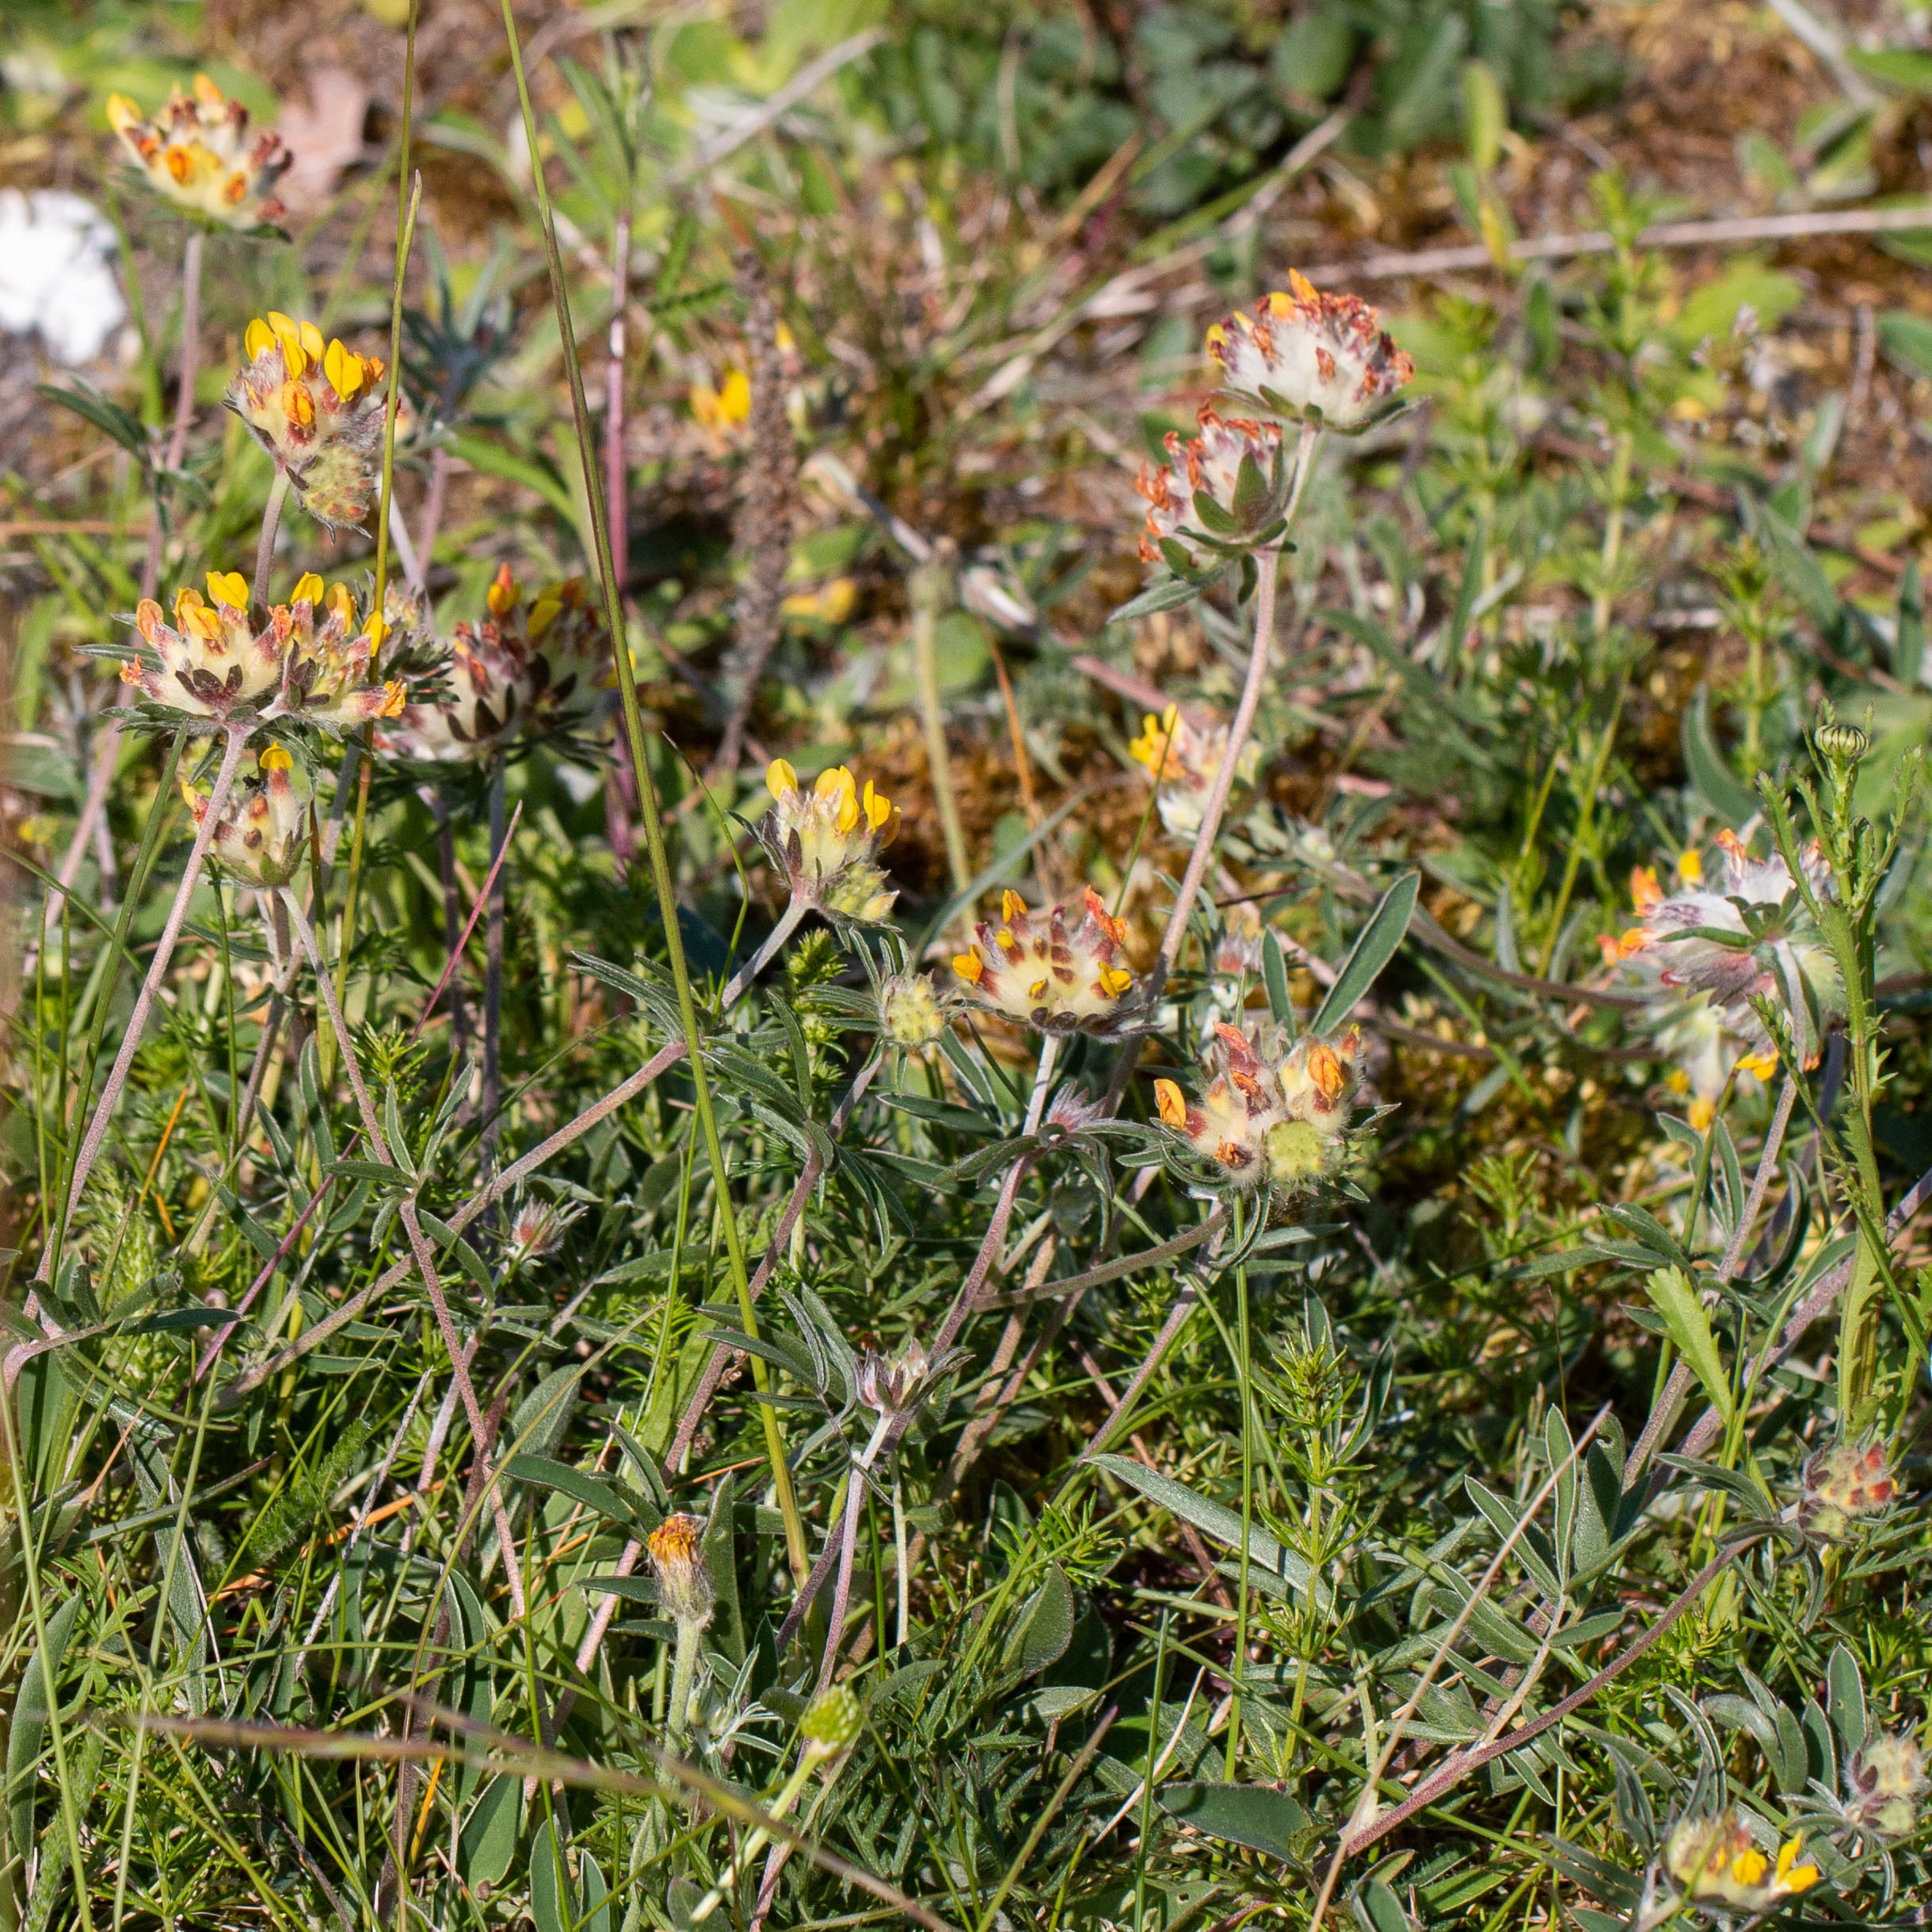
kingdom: Plantae
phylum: Tracheophyta
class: Magnoliopsida
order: Fabales
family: Fabaceae
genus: Anthyllis
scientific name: Anthyllis vulneraria
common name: Rundbælg
